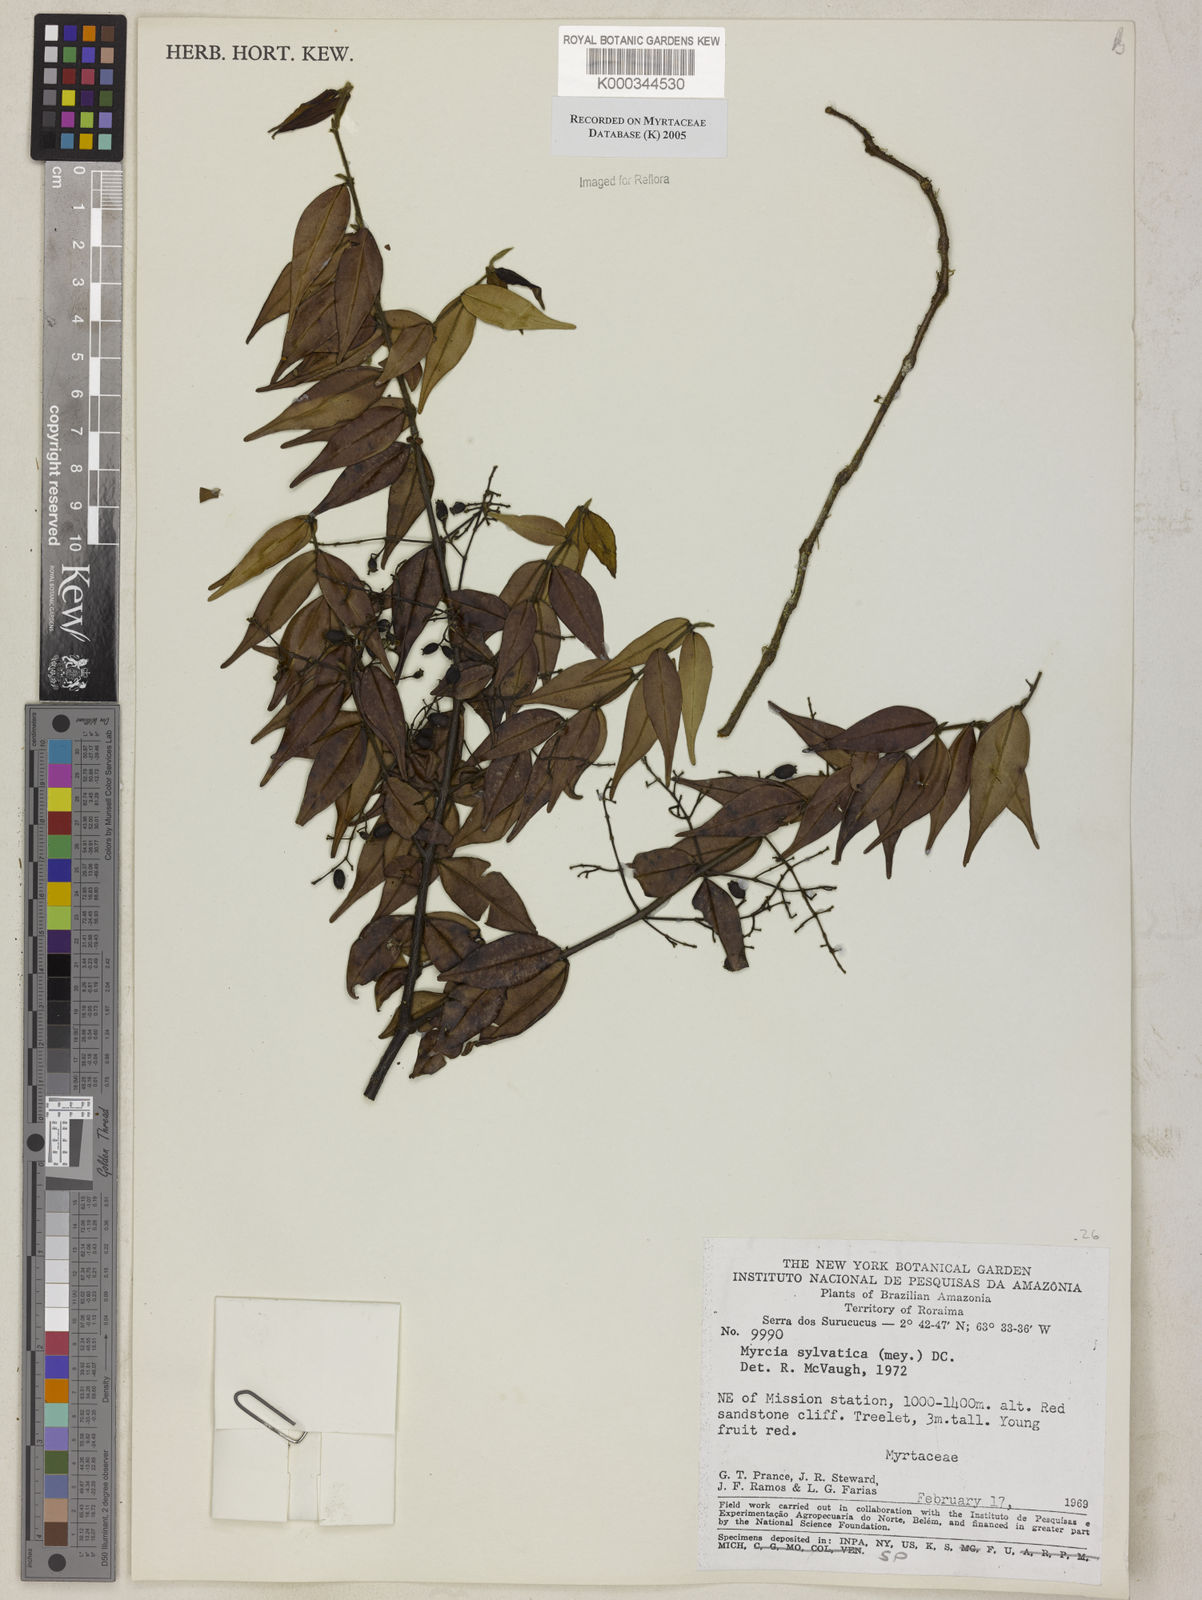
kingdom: Plantae
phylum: Tracheophyta
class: Magnoliopsida
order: Myrtales
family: Myrtaceae
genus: Myrcia
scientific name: Myrcia sylvatica
